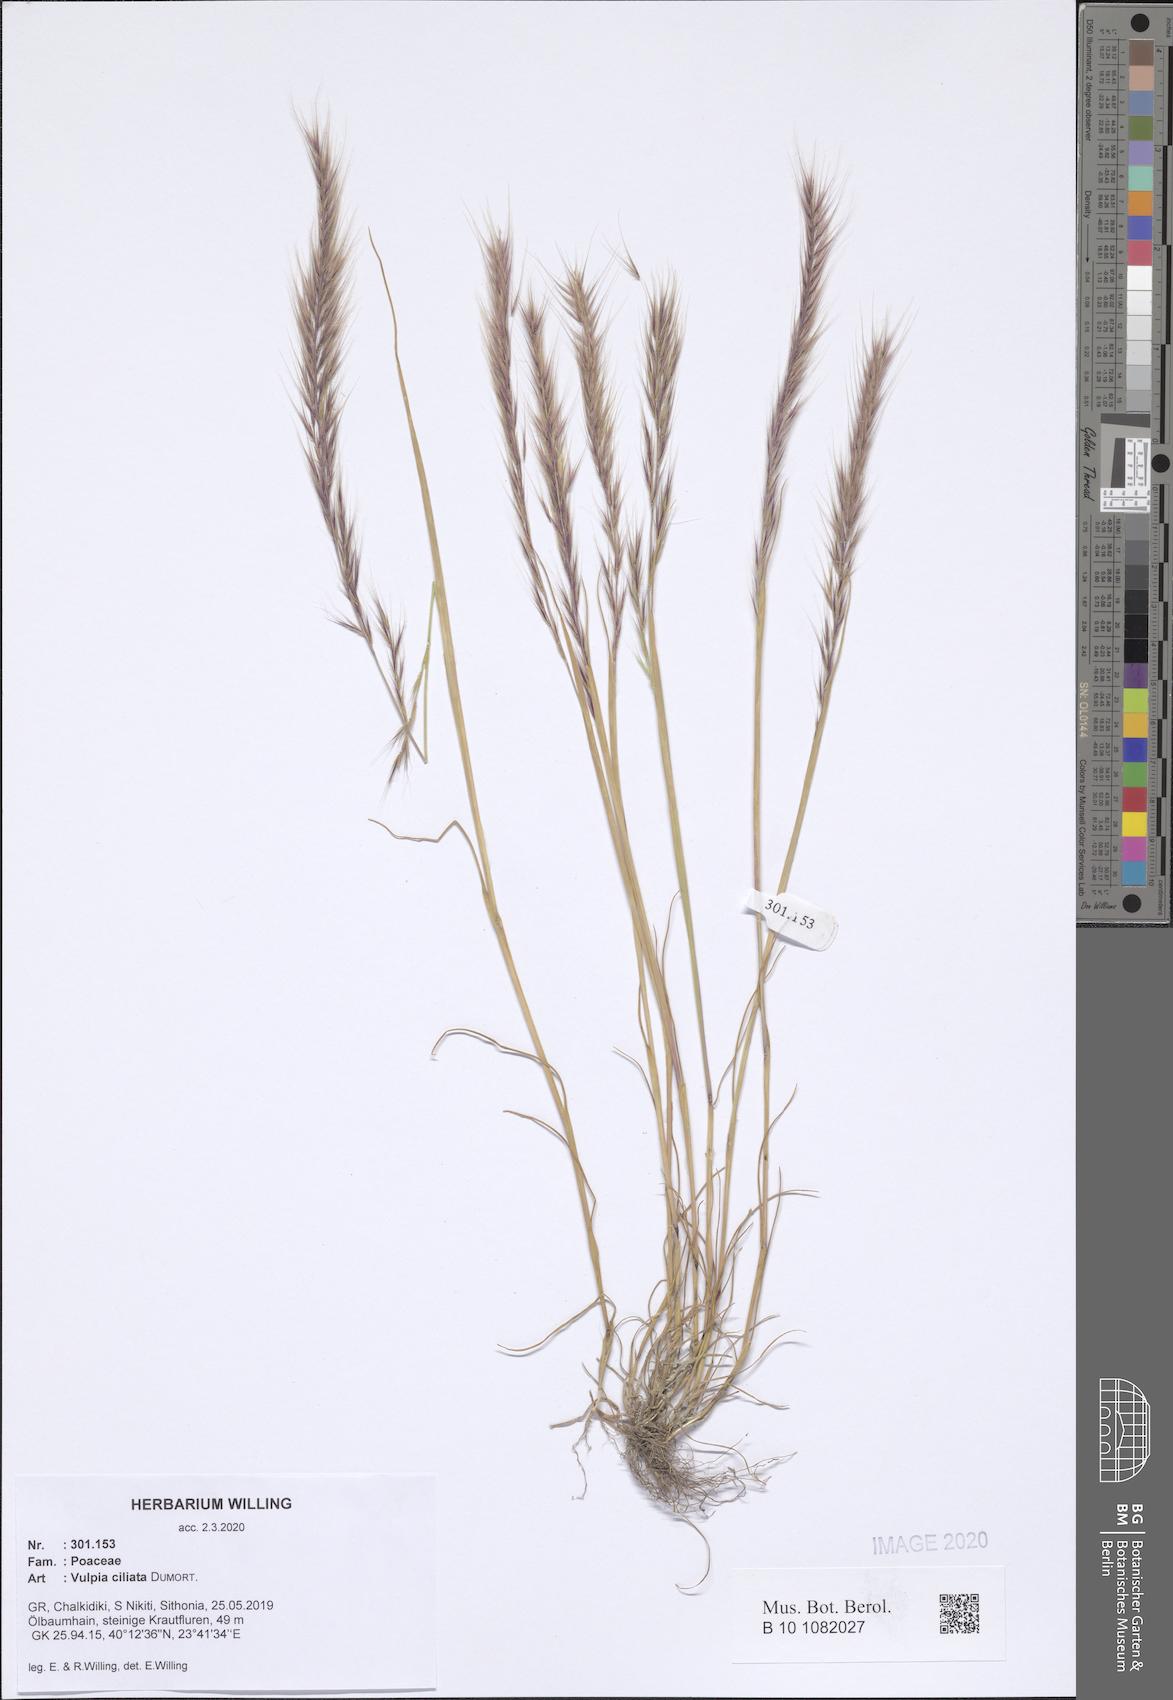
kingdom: Plantae
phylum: Tracheophyta
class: Liliopsida
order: Poales
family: Poaceae
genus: Festuca
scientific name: Festuca ambigua
